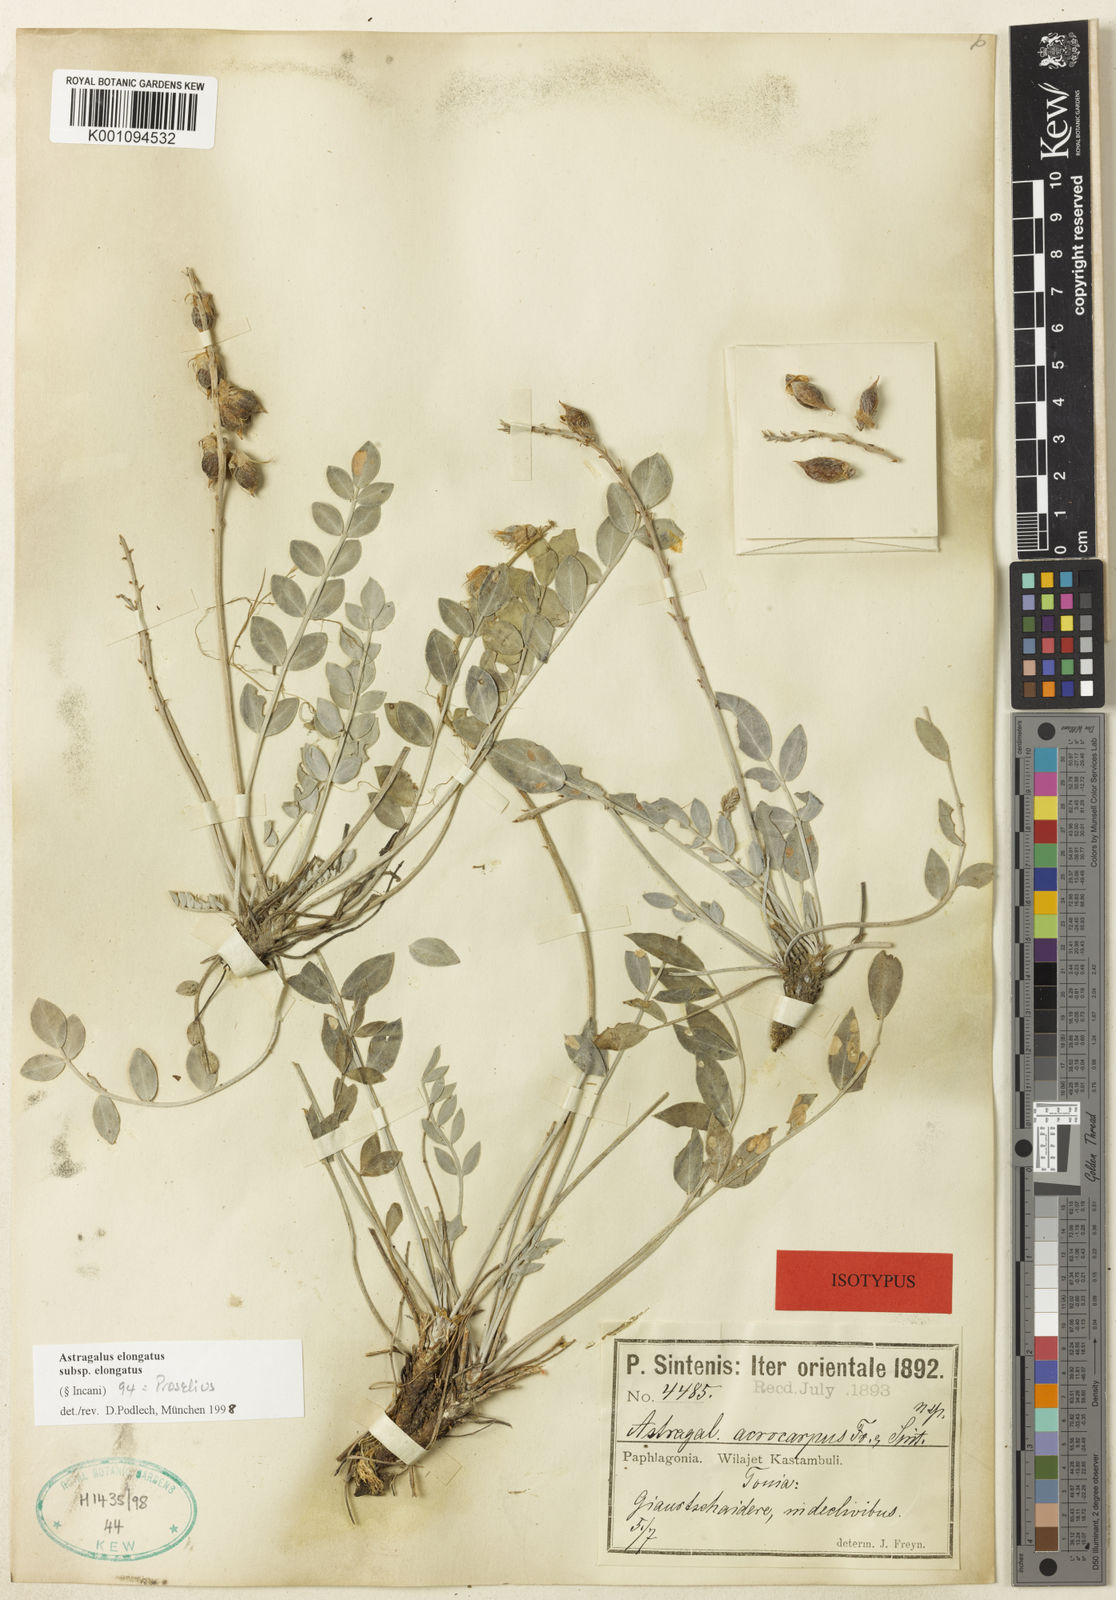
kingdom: Plantae
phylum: Tracheophyta
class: Magnoliopsida
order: Fabales
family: Fabaceae
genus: Astragalus
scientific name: Astragalus
